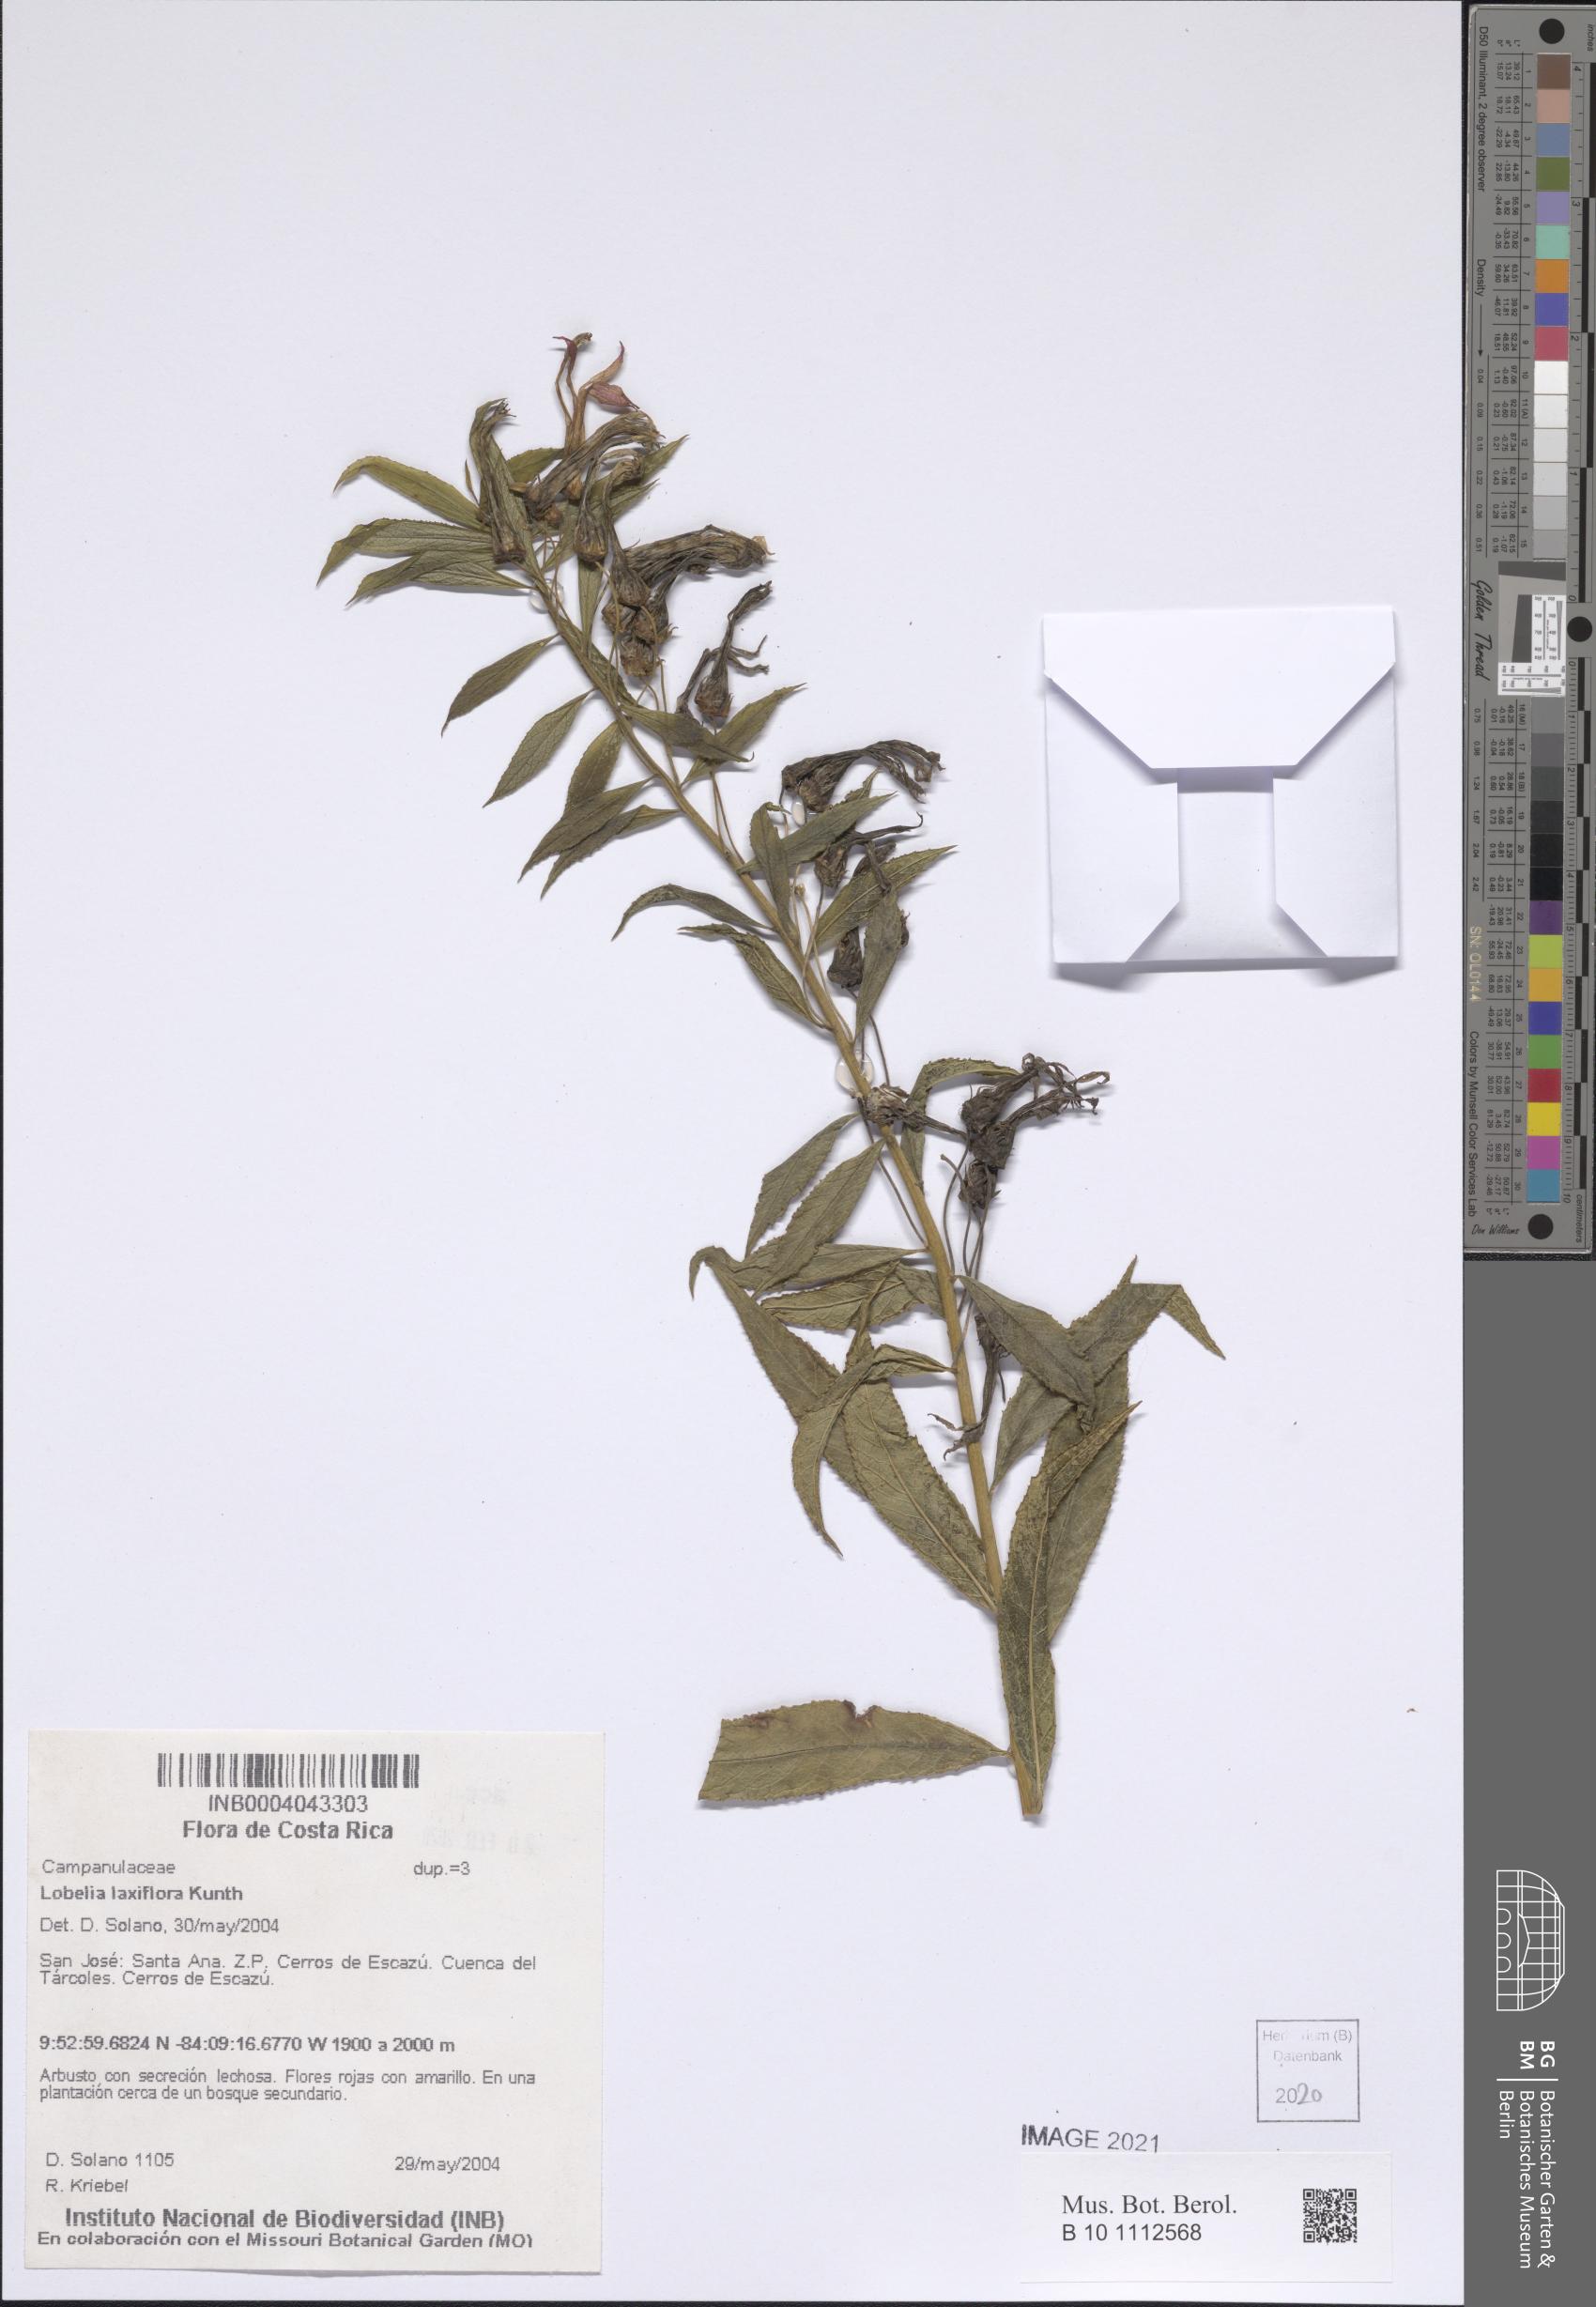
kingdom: Plantae
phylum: Tracheophyta
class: Magnoliopsida
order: Asterales
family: Campanulaceae
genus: Lobelia
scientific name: Lobelia laxiflora
